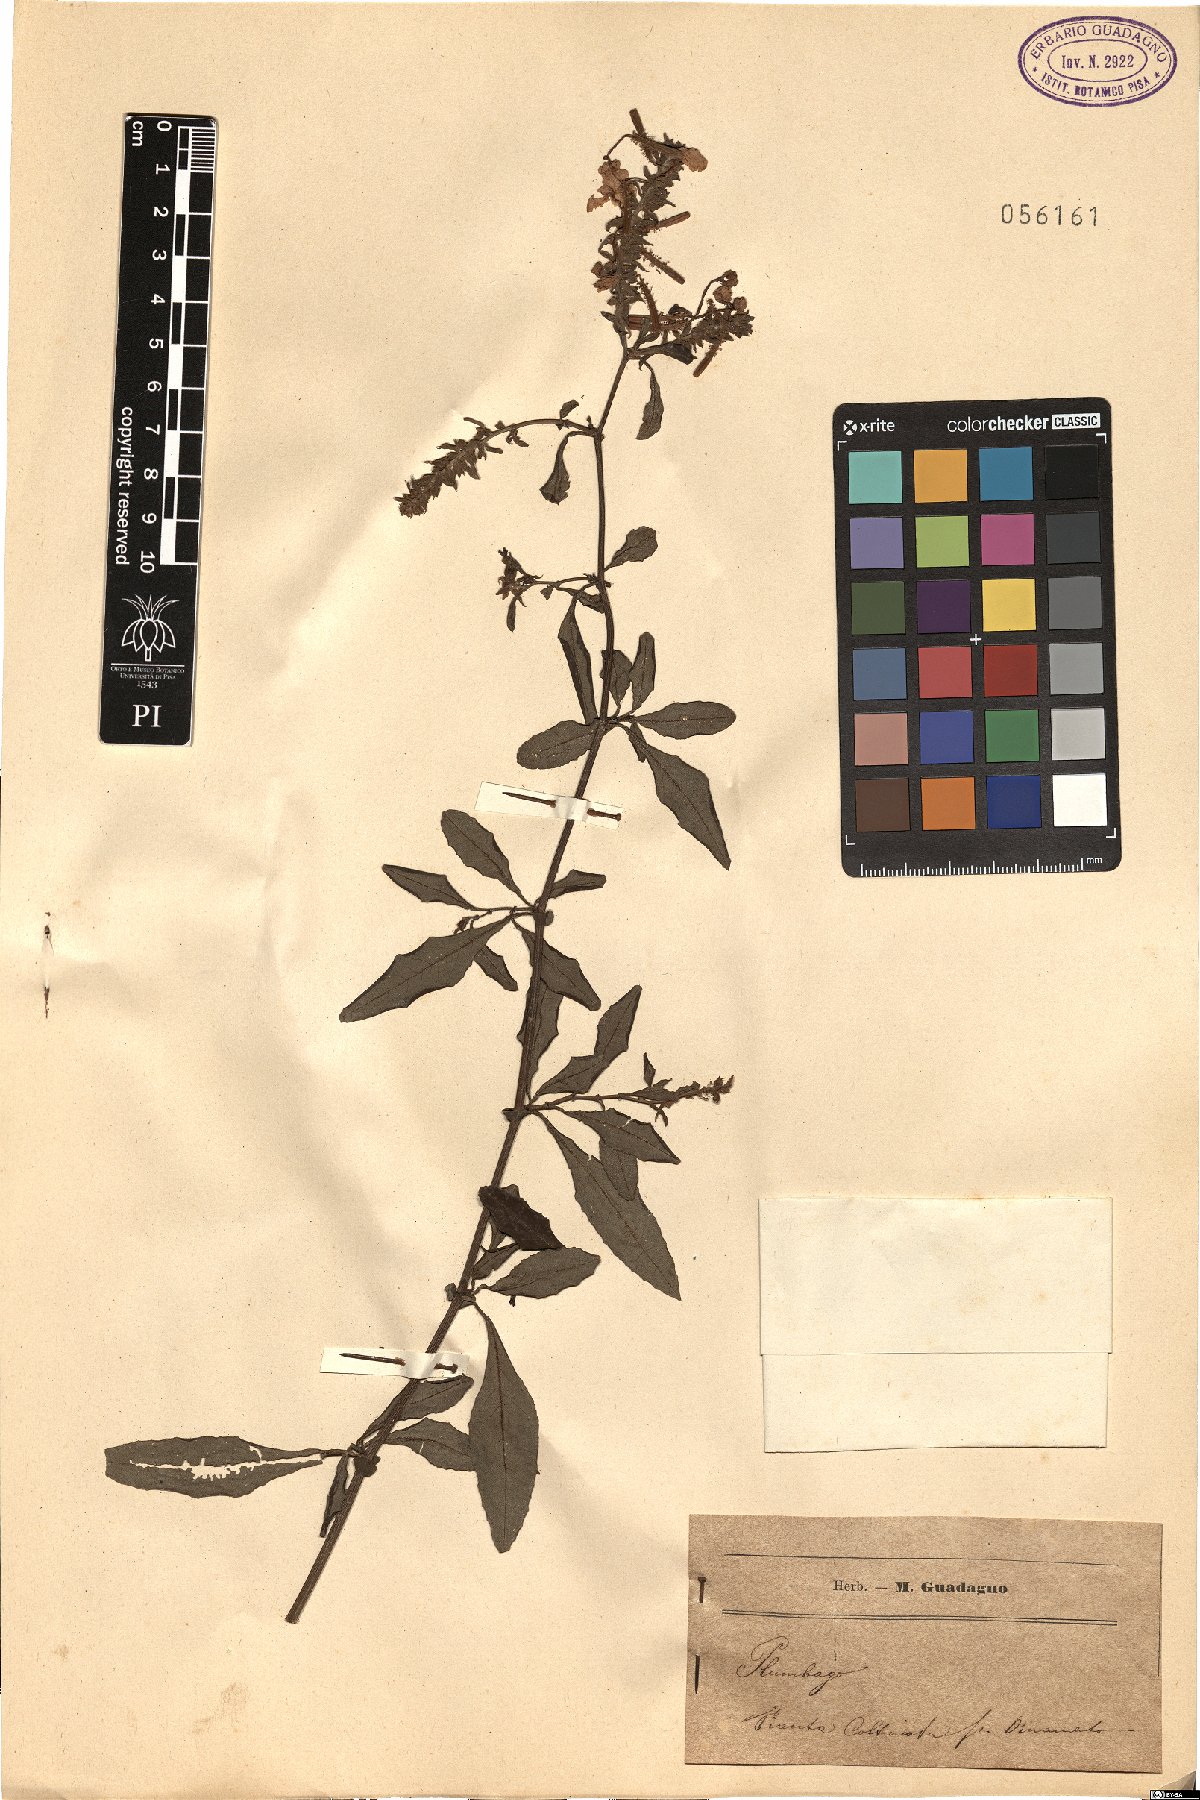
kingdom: Plantae
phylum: Tracheophyta
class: Magnoliopsida
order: Caryophyllales
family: Plumbaginaceae
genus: Plumbago
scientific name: Plumbago
